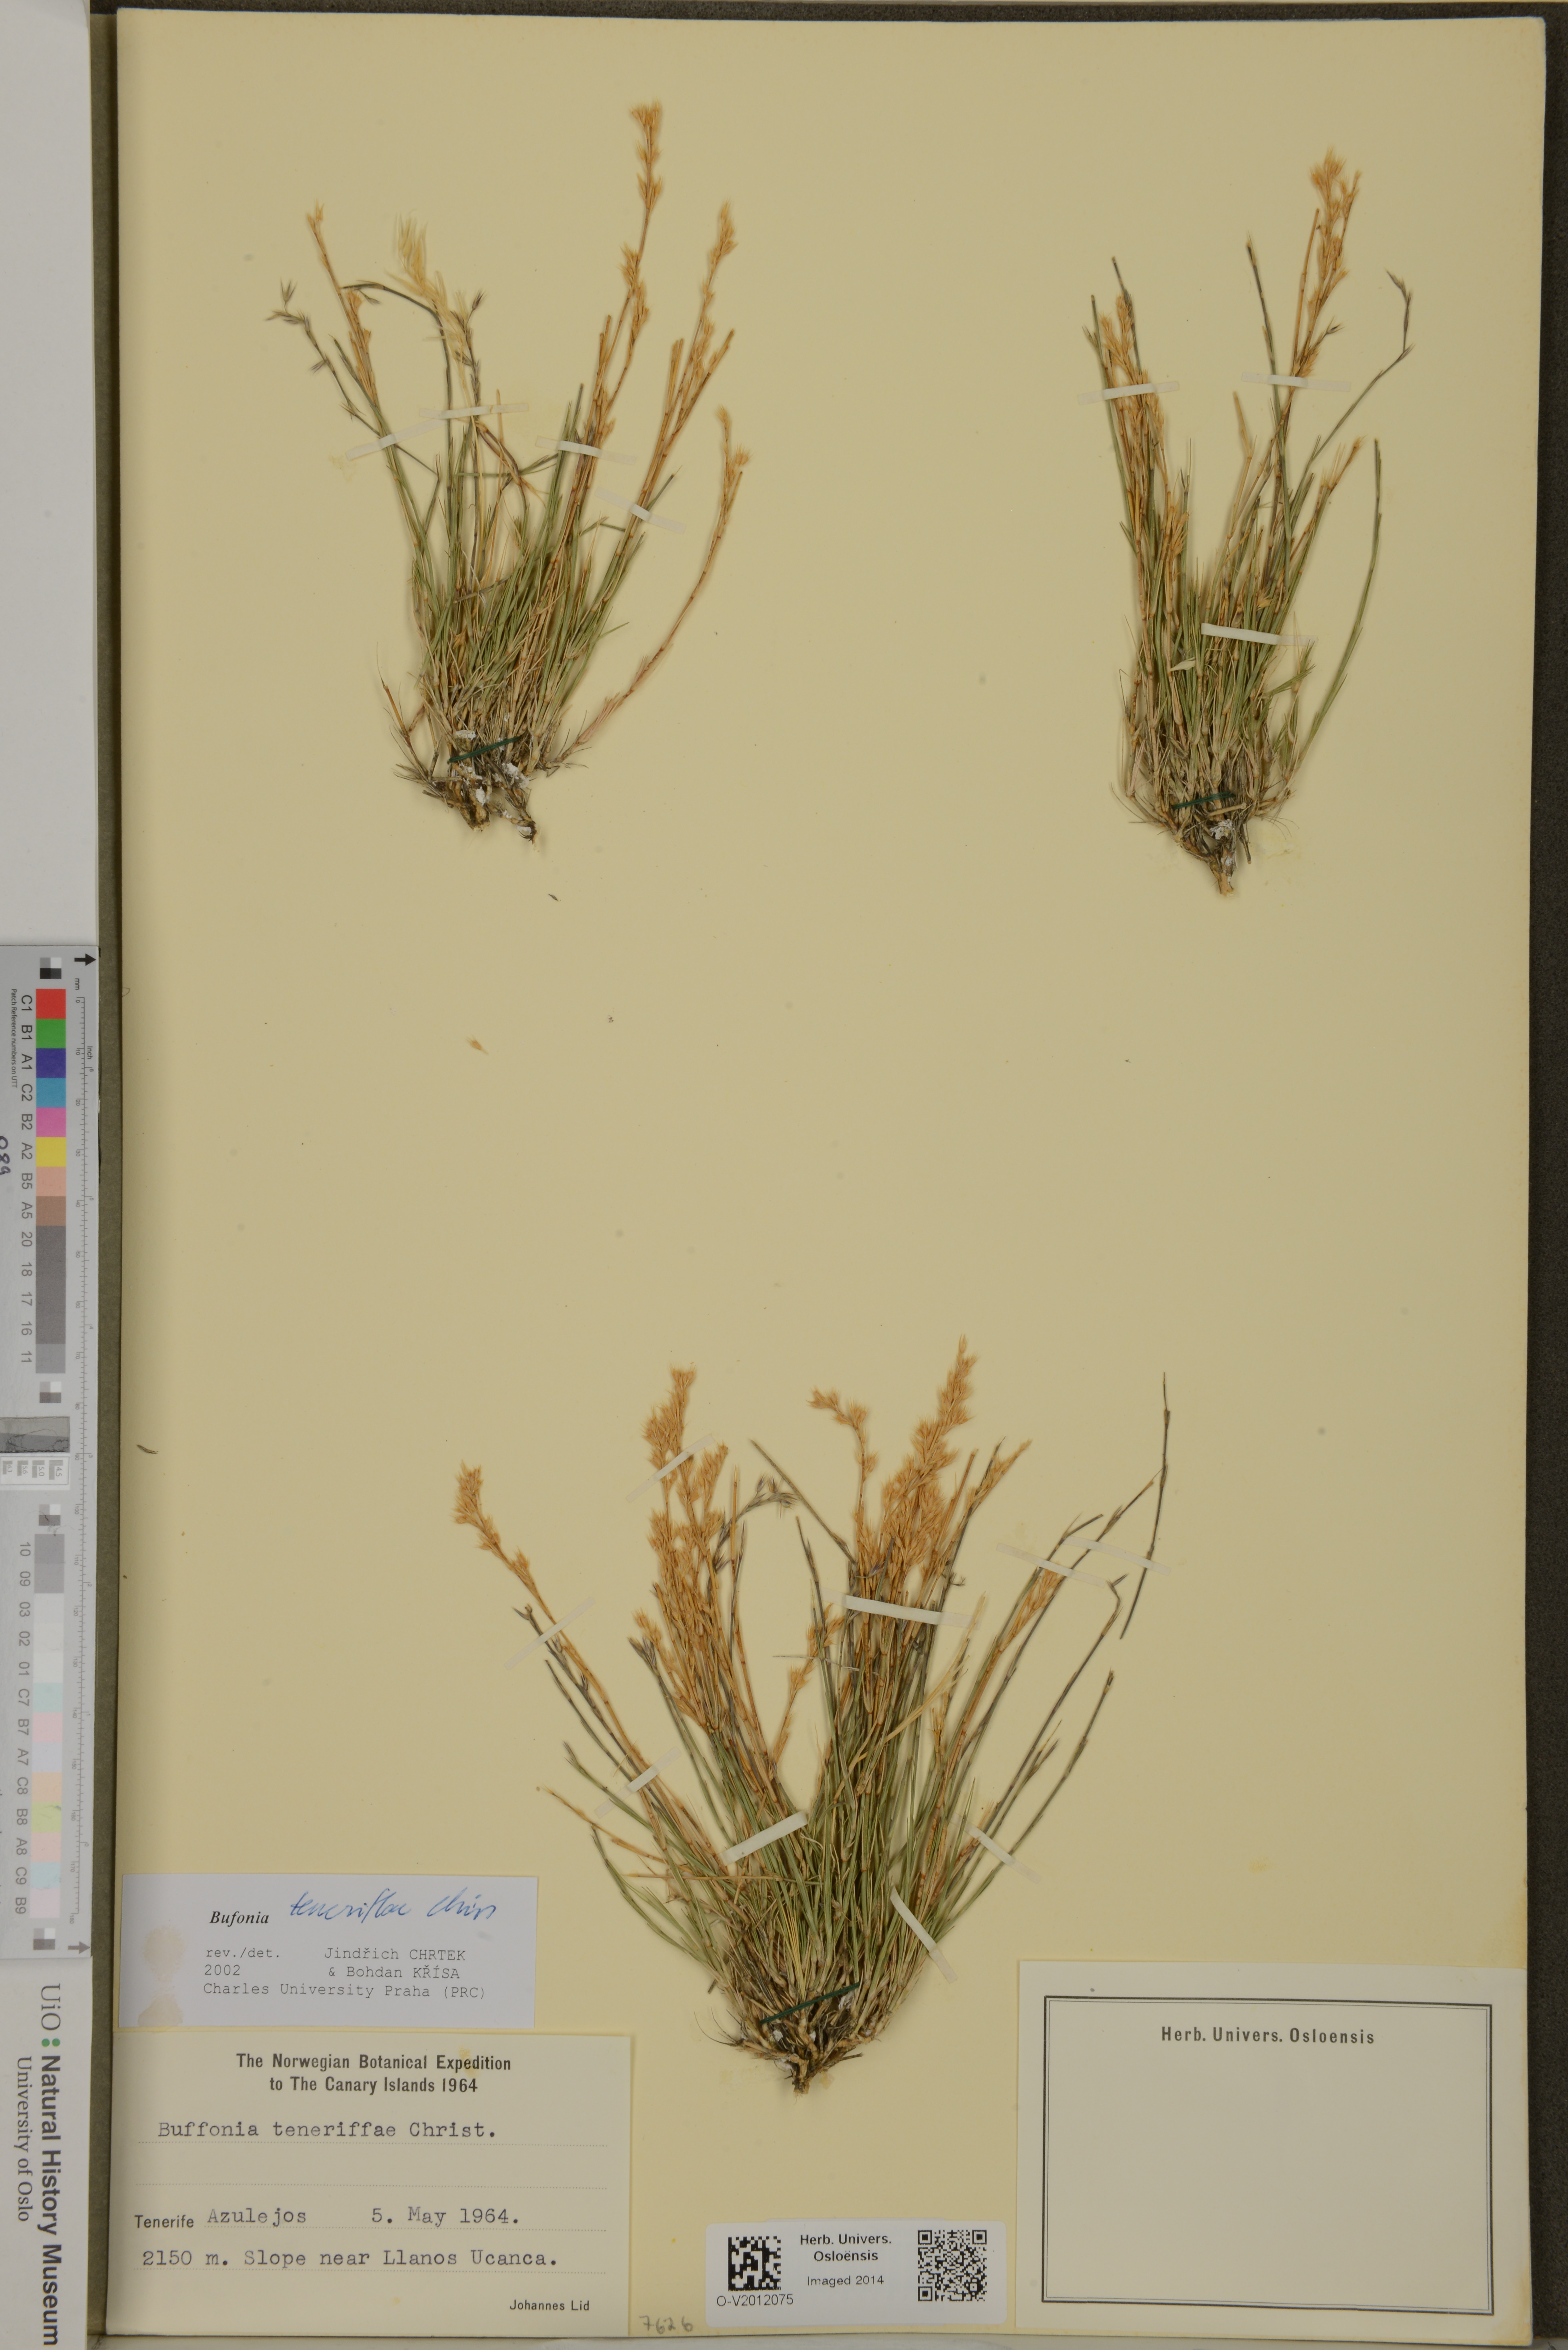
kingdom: Plantae
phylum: Tracheophyta
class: Magnoliopsida
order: Caryophyllales
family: Caryophyllaceae
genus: Bufonia
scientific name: Bufonia teneriffae
